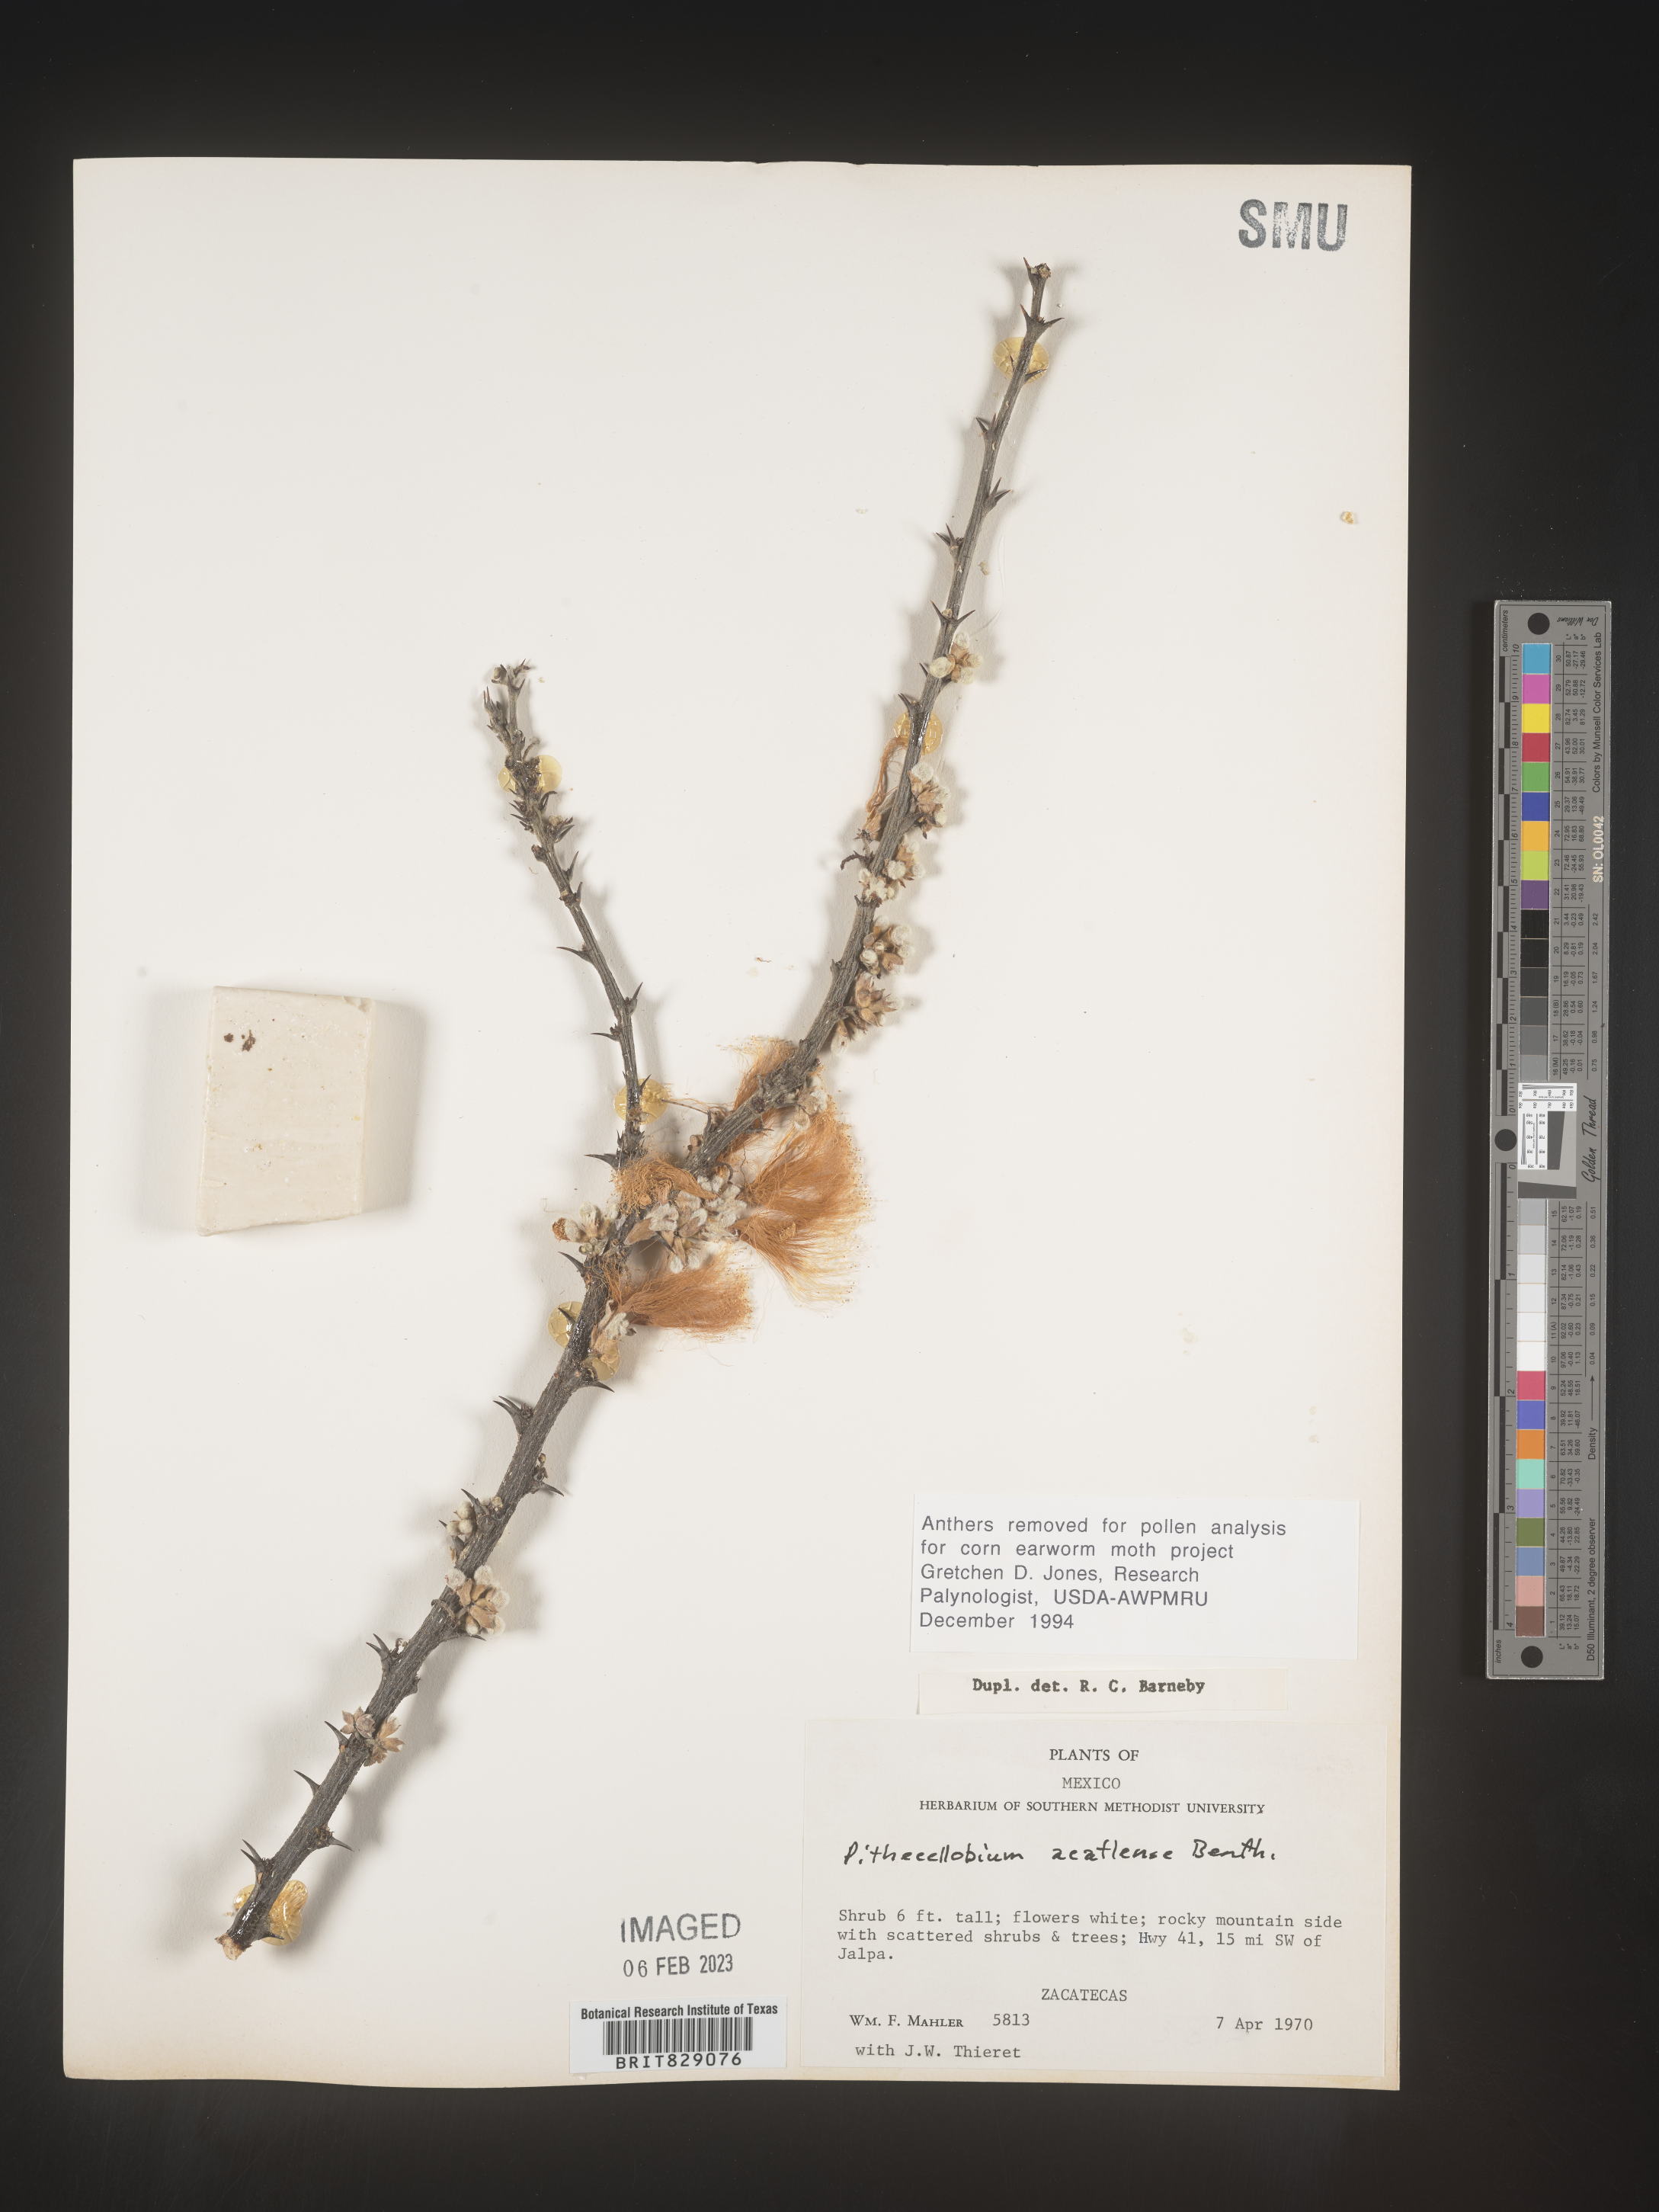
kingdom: Plantae
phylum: Tracheophyta
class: Magnoliopsida
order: Fabales
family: Fabaceae
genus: Pithecellobium
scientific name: Pithecellobium
